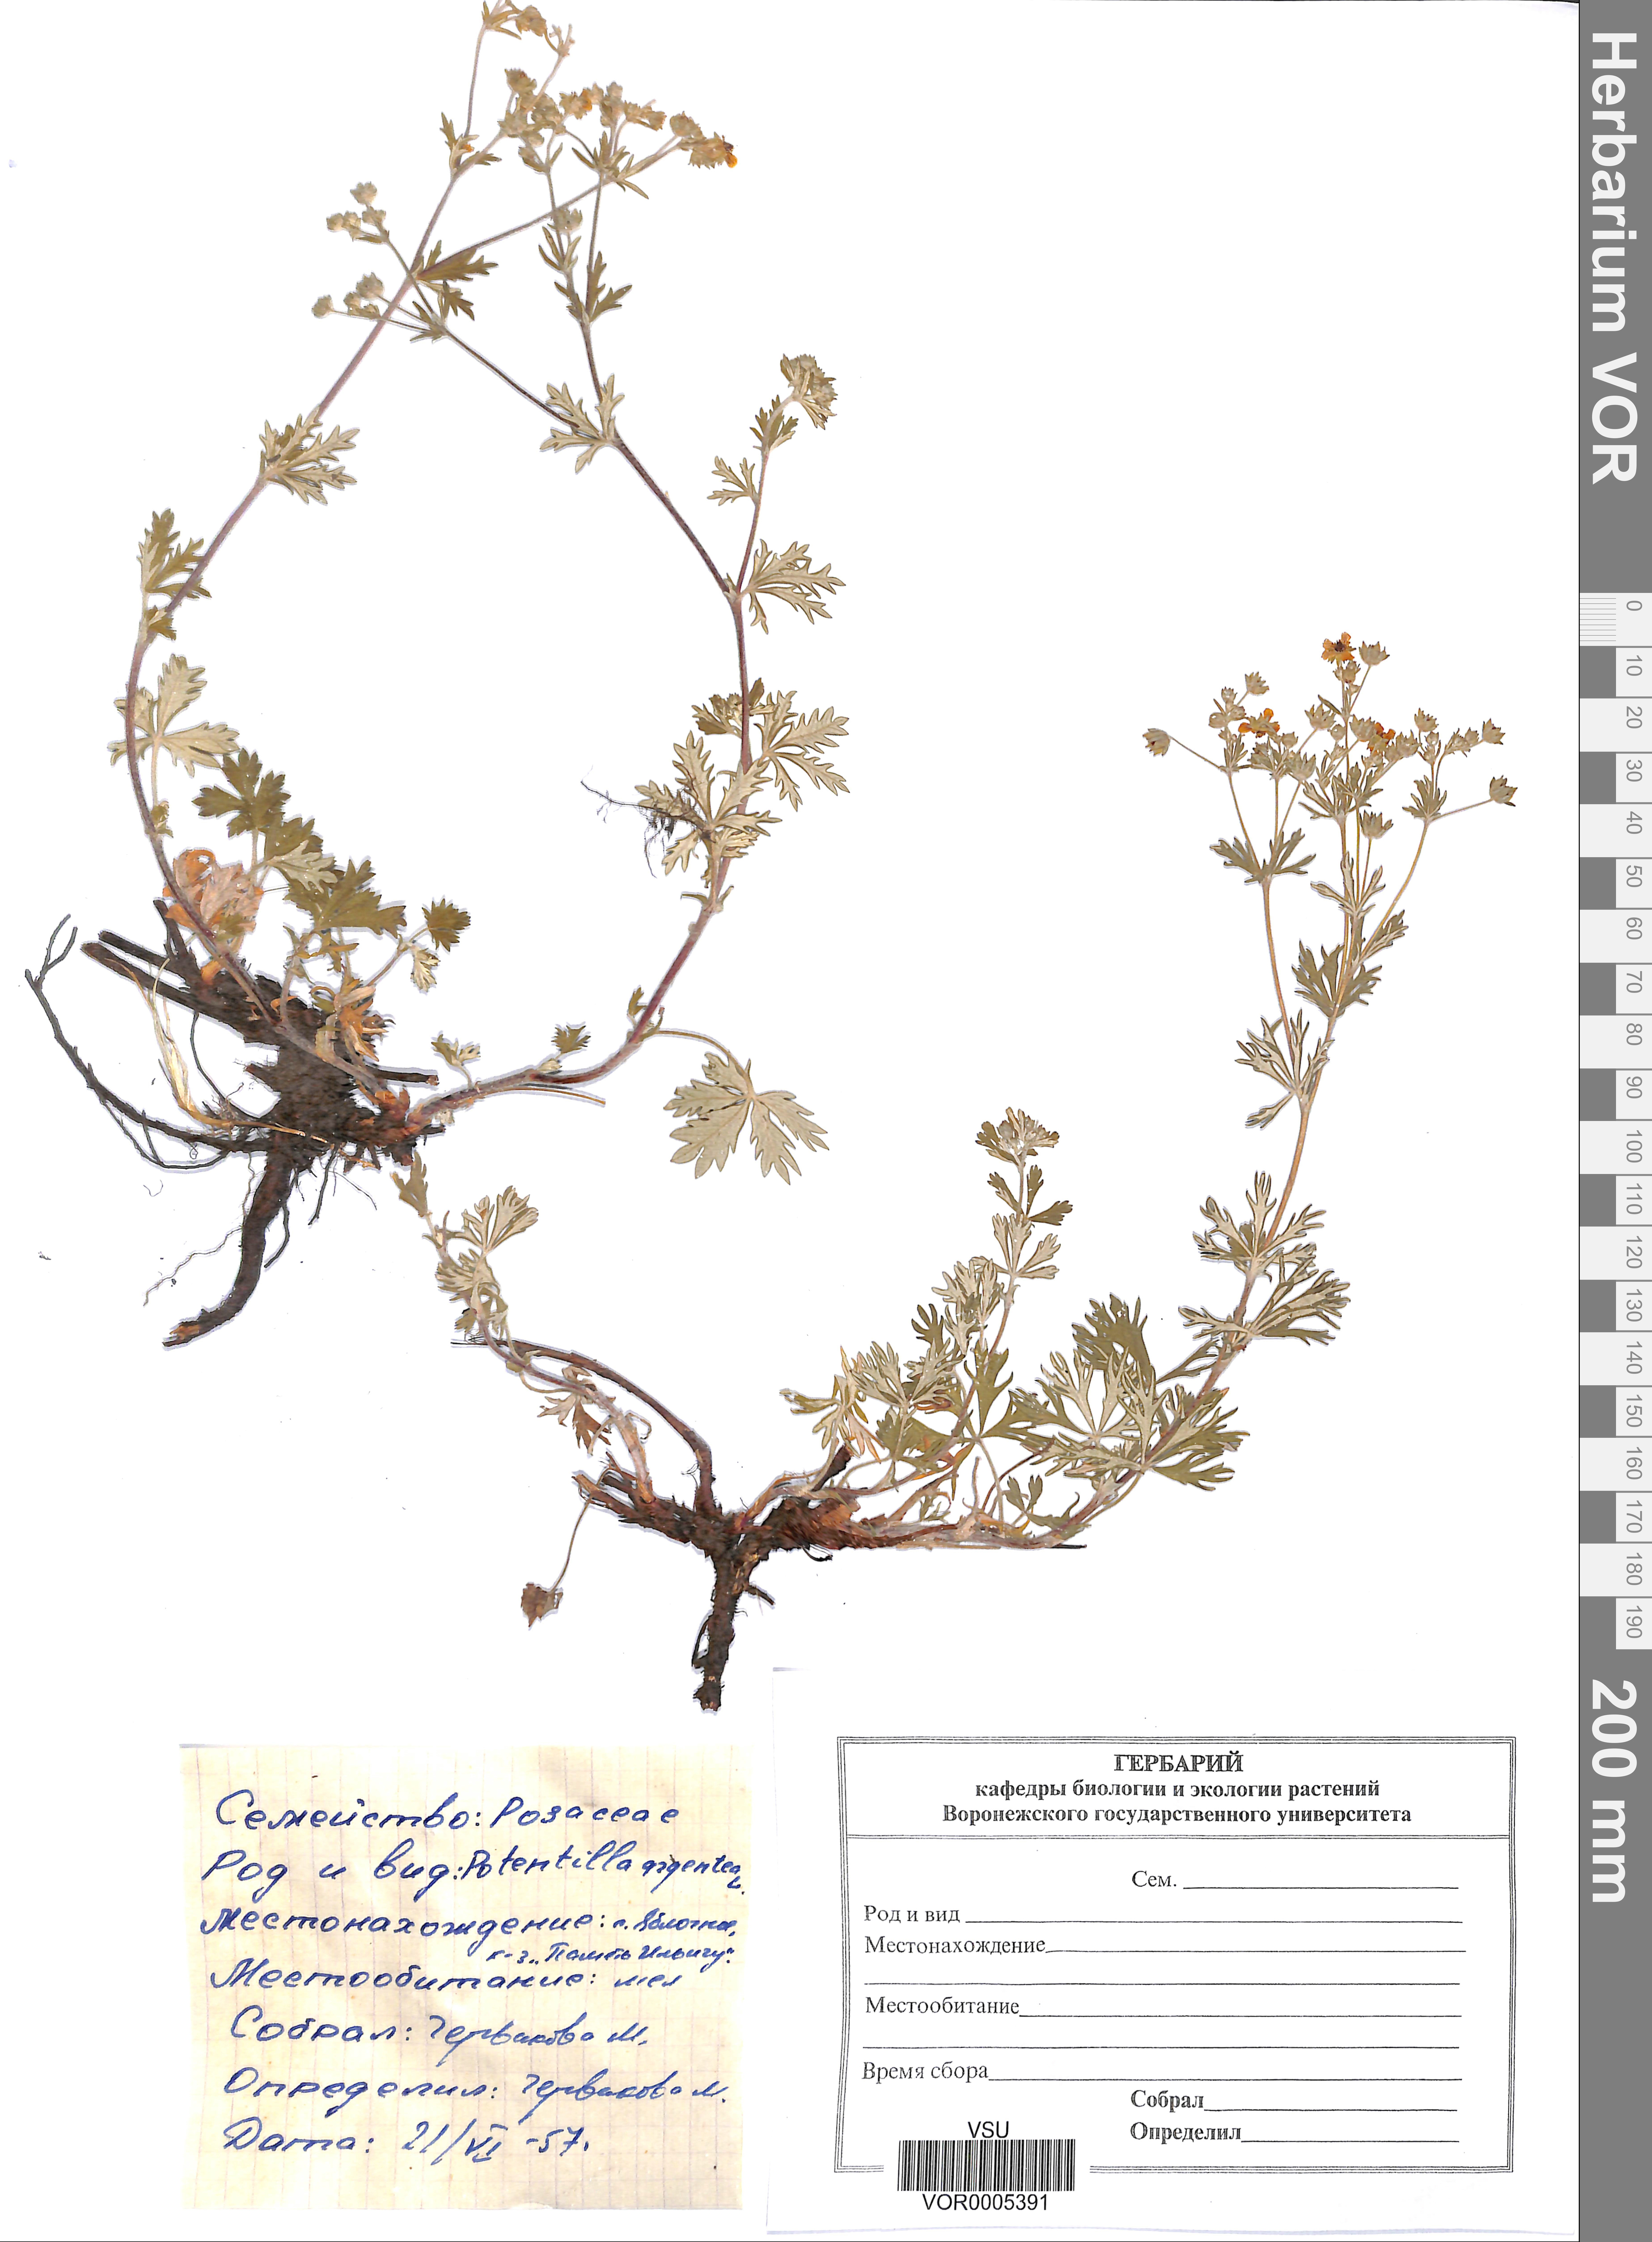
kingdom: Plantae
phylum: Tracheophyta
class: Magnoliopsida
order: Rosales
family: Rosaceae
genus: Potentilla
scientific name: Potentilla argentea
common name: Hoary cinquefoil
